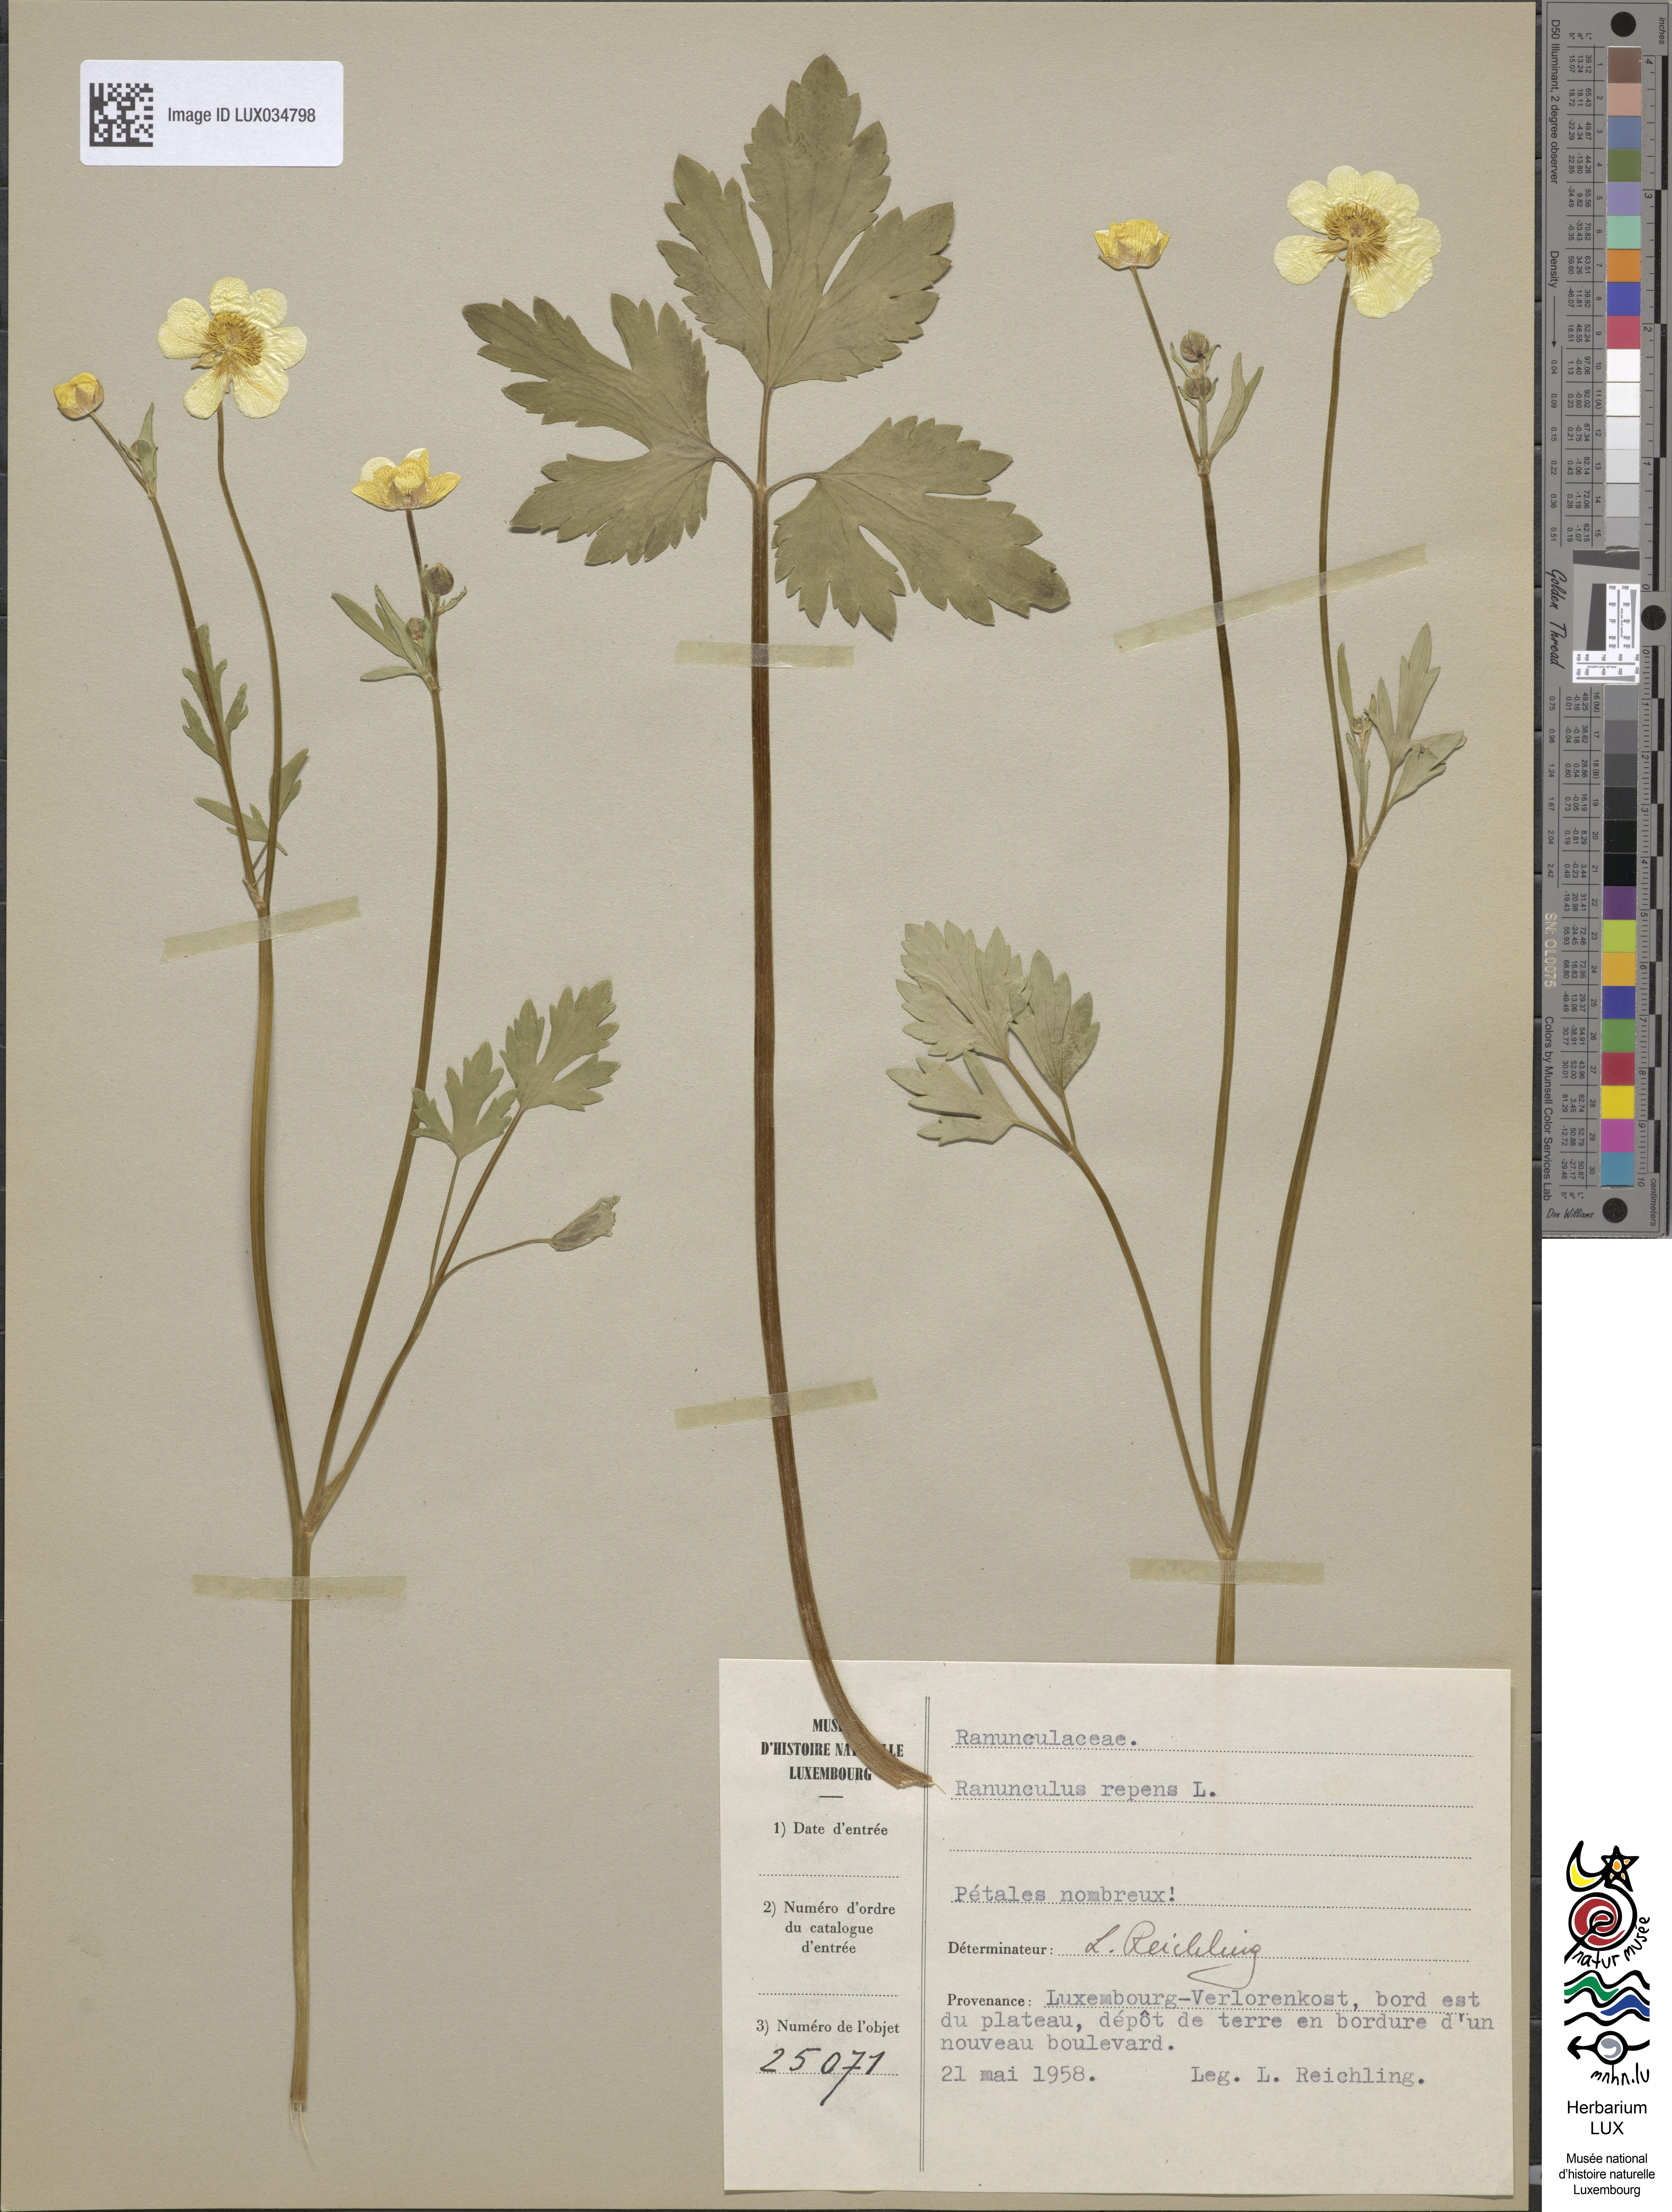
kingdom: Plantae
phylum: Tracheophyta
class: Magnoliopsida
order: Ranunculales
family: Ranunculaceae
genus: Ranunculus
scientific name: Ranunculus repens
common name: Creeping buttercup
